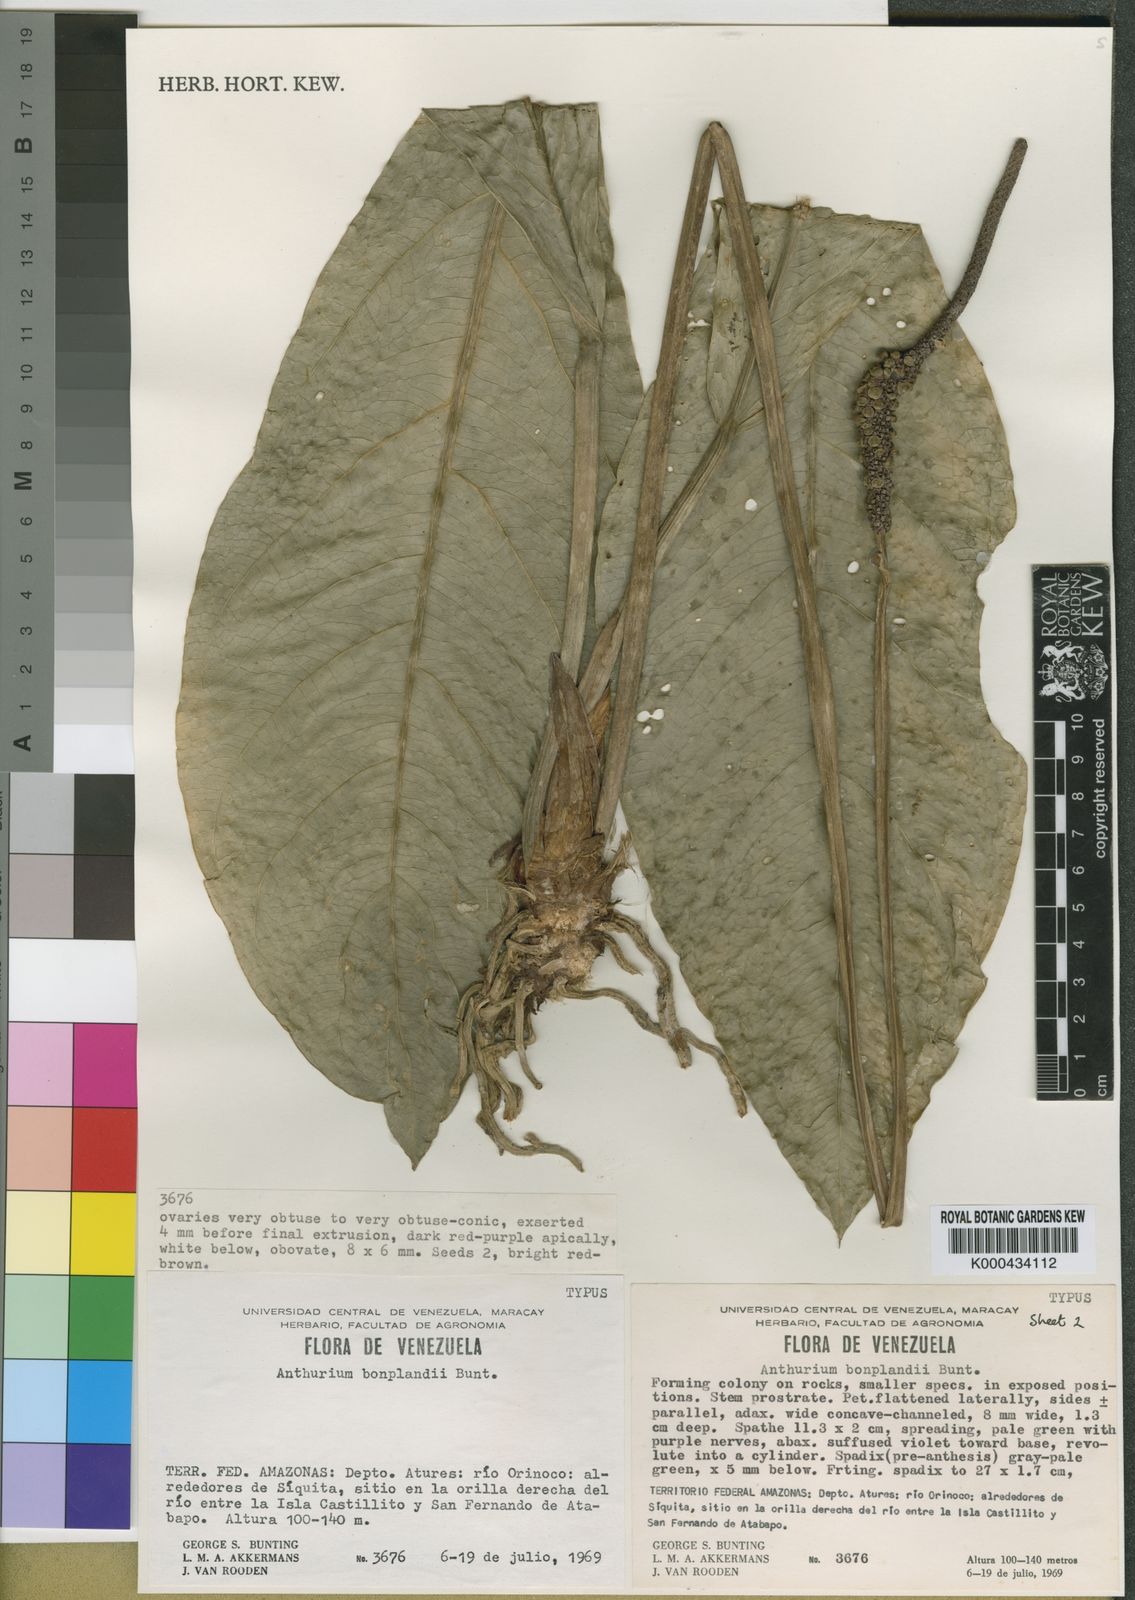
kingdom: Plantae
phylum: Tracheophyta
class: Liliopsida
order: Alismatales
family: Araceae
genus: Anthurium
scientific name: Anthurium bonplandii
